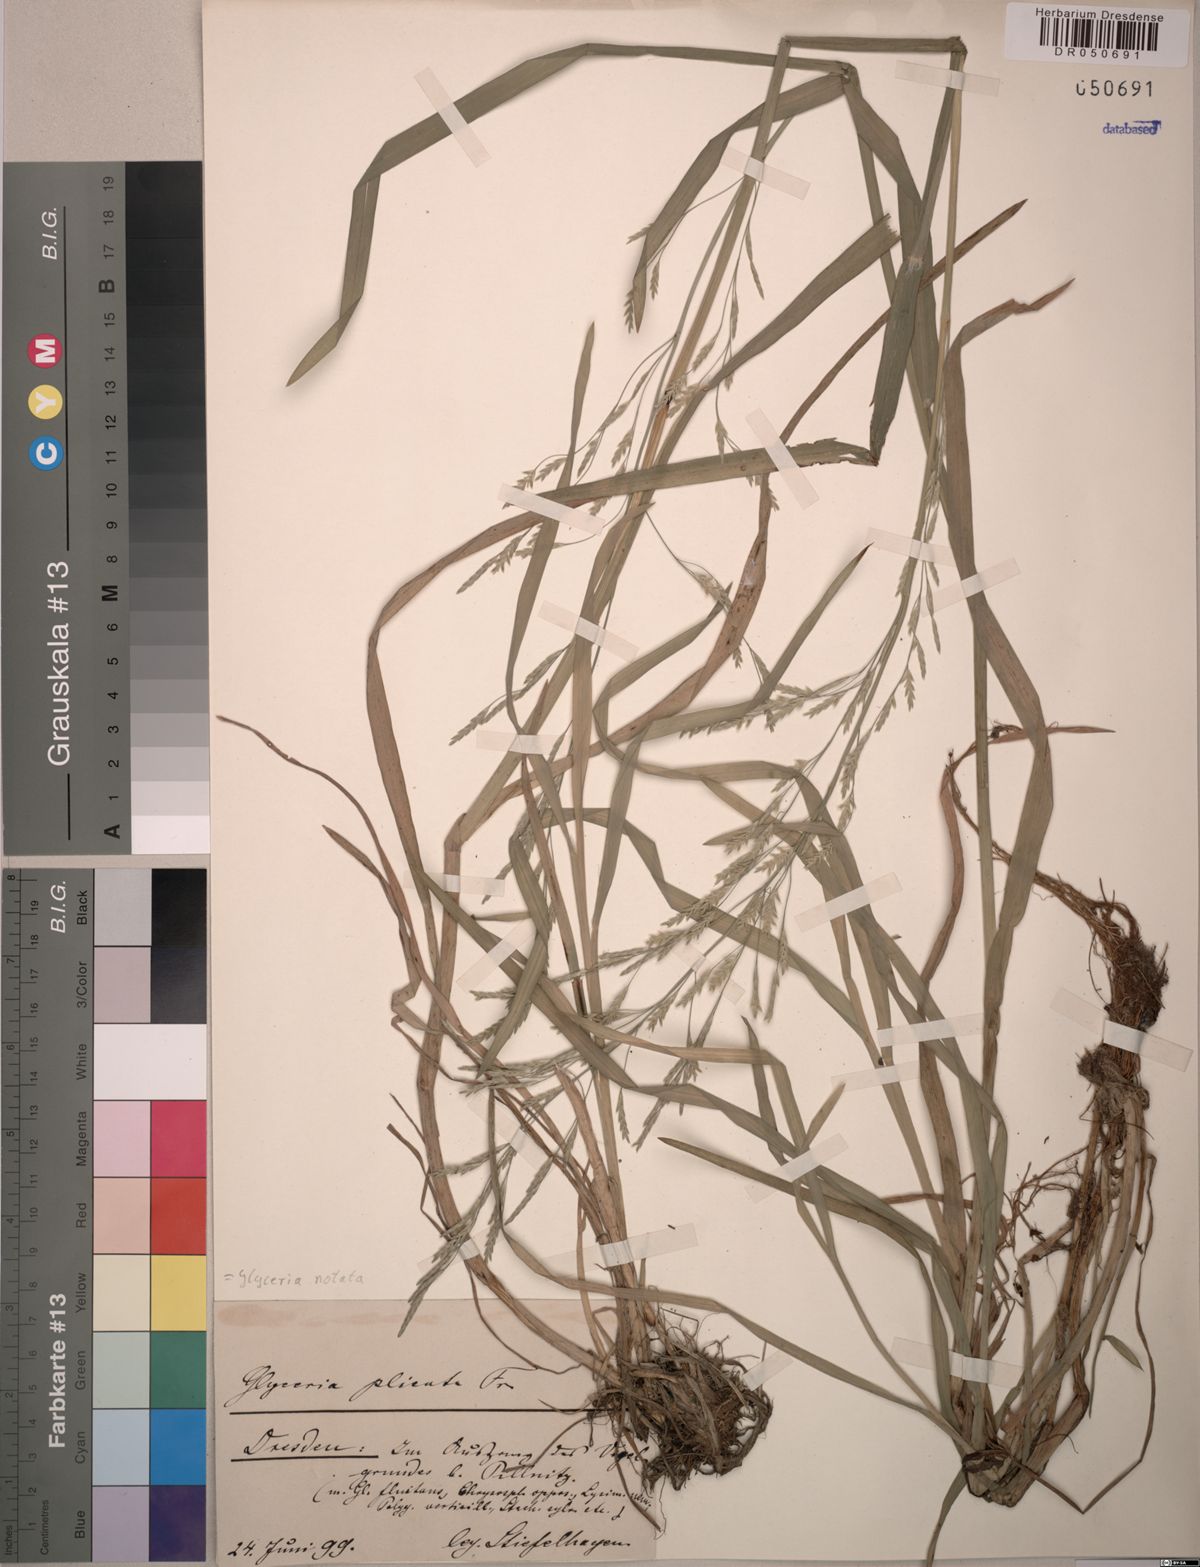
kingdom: Plantae
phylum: Tracheophyta
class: Liliopsida
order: Poales
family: Poaceae
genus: Glyceria
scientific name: Glyceria notata
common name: Plicate sweet-grass
